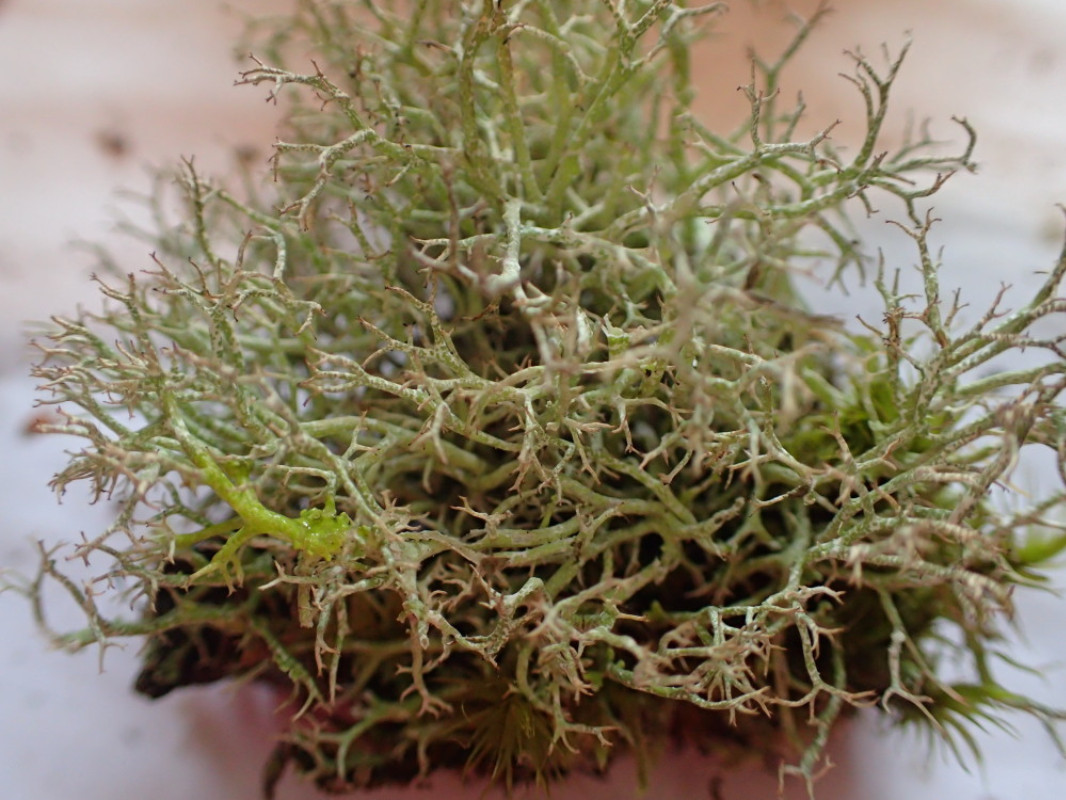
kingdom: Fungi
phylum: Ascomycota
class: Lecanoromycetes
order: Lecanorales
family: Cladoniaceae
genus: Cladonia
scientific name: Cladonia rangiformis
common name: spættet bægerlav
